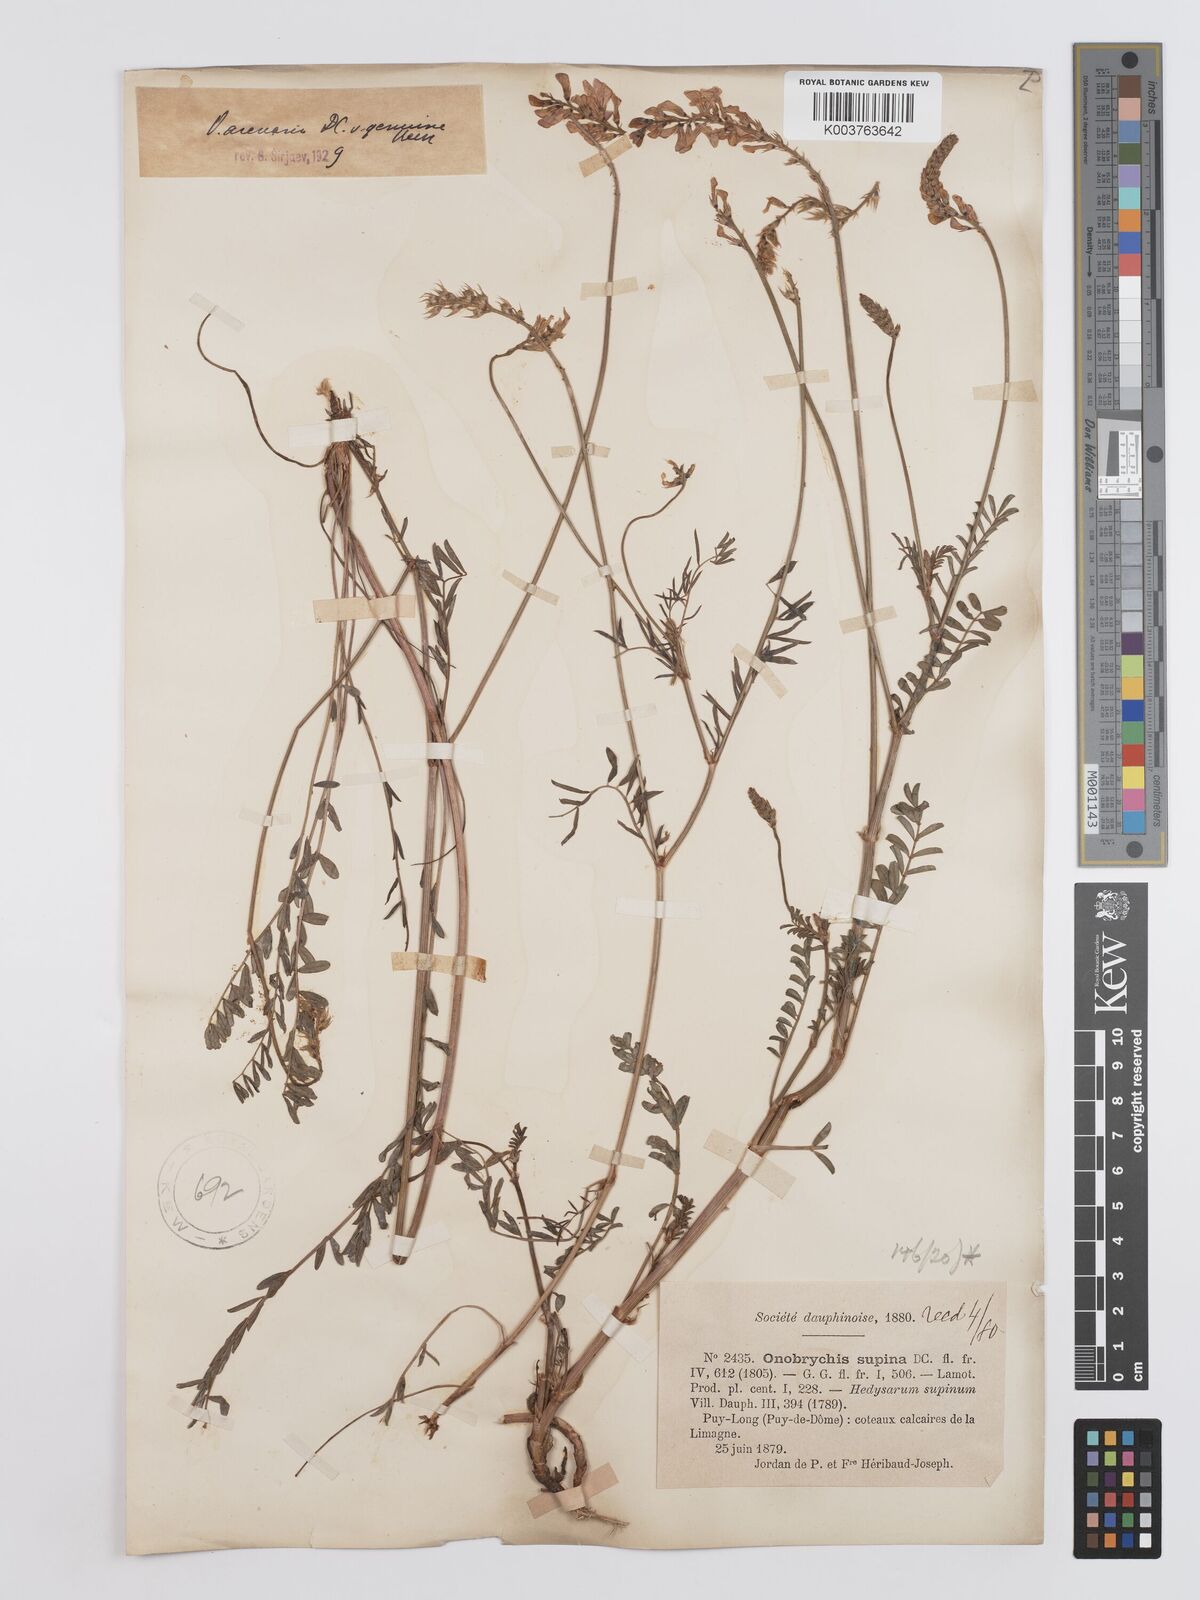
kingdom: Plantae
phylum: Tracheophyta
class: Magnoliopsida
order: Fabales
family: Fabaceae
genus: Onobrychis
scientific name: Onobrychis supina
